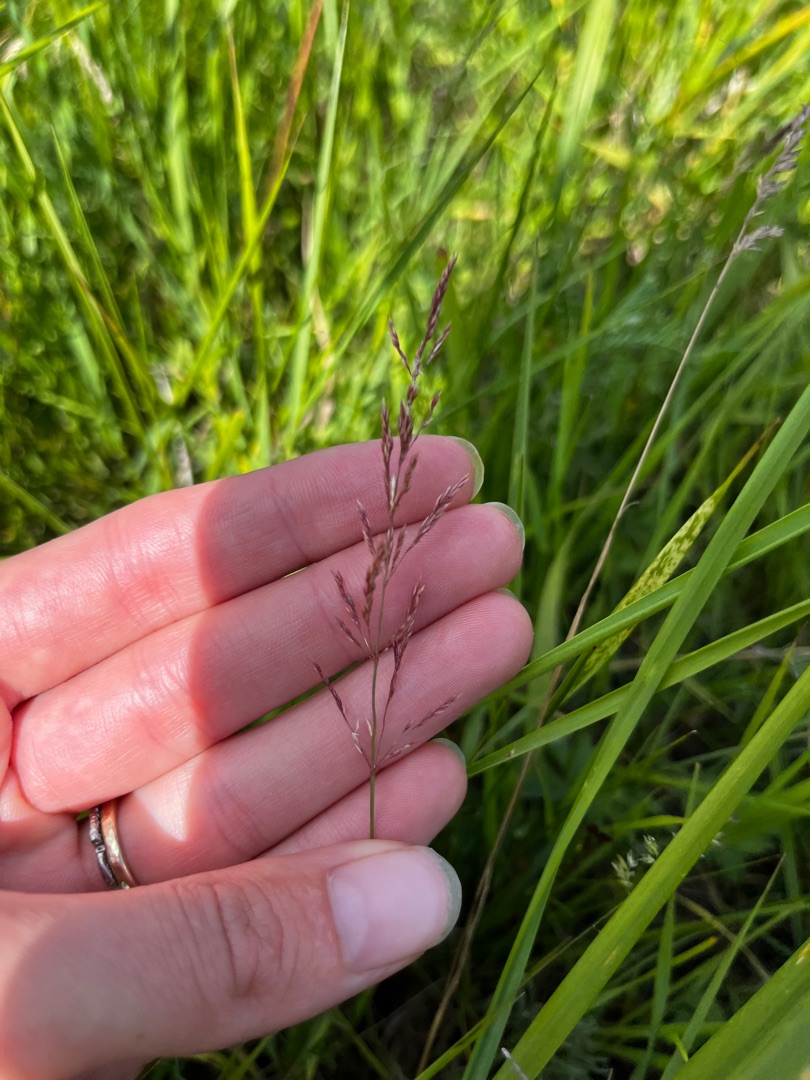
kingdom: Plantae
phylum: Tracheophyta
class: Liliopsida
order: Poales
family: Poaceae
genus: Agrostis
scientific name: Agrostis stolonifera
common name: Kryb-hvene
